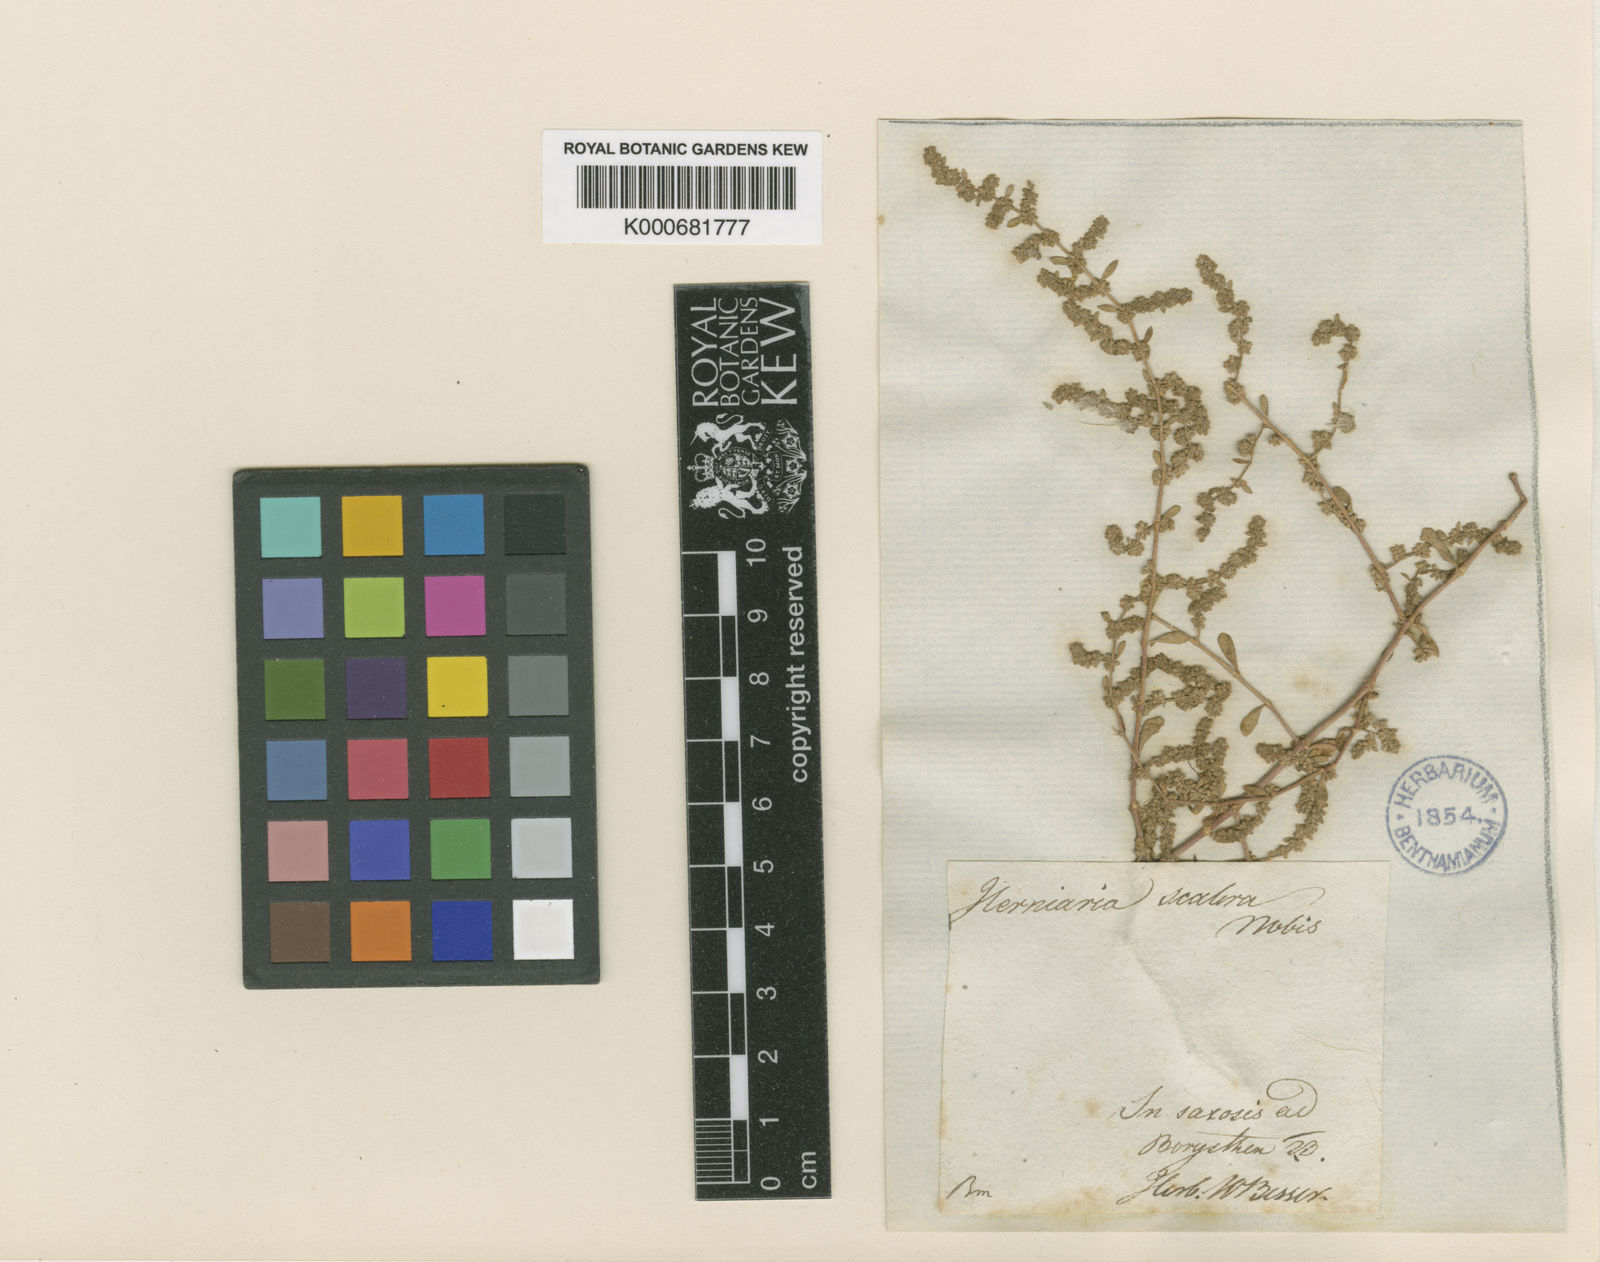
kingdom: Plantae
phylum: Tracheophyta
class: Magnoliopsida
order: Caryophyllales
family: Caryophyllaceae
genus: Herniaria
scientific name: Herniaria hirsuta
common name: Hairy rupturewort
